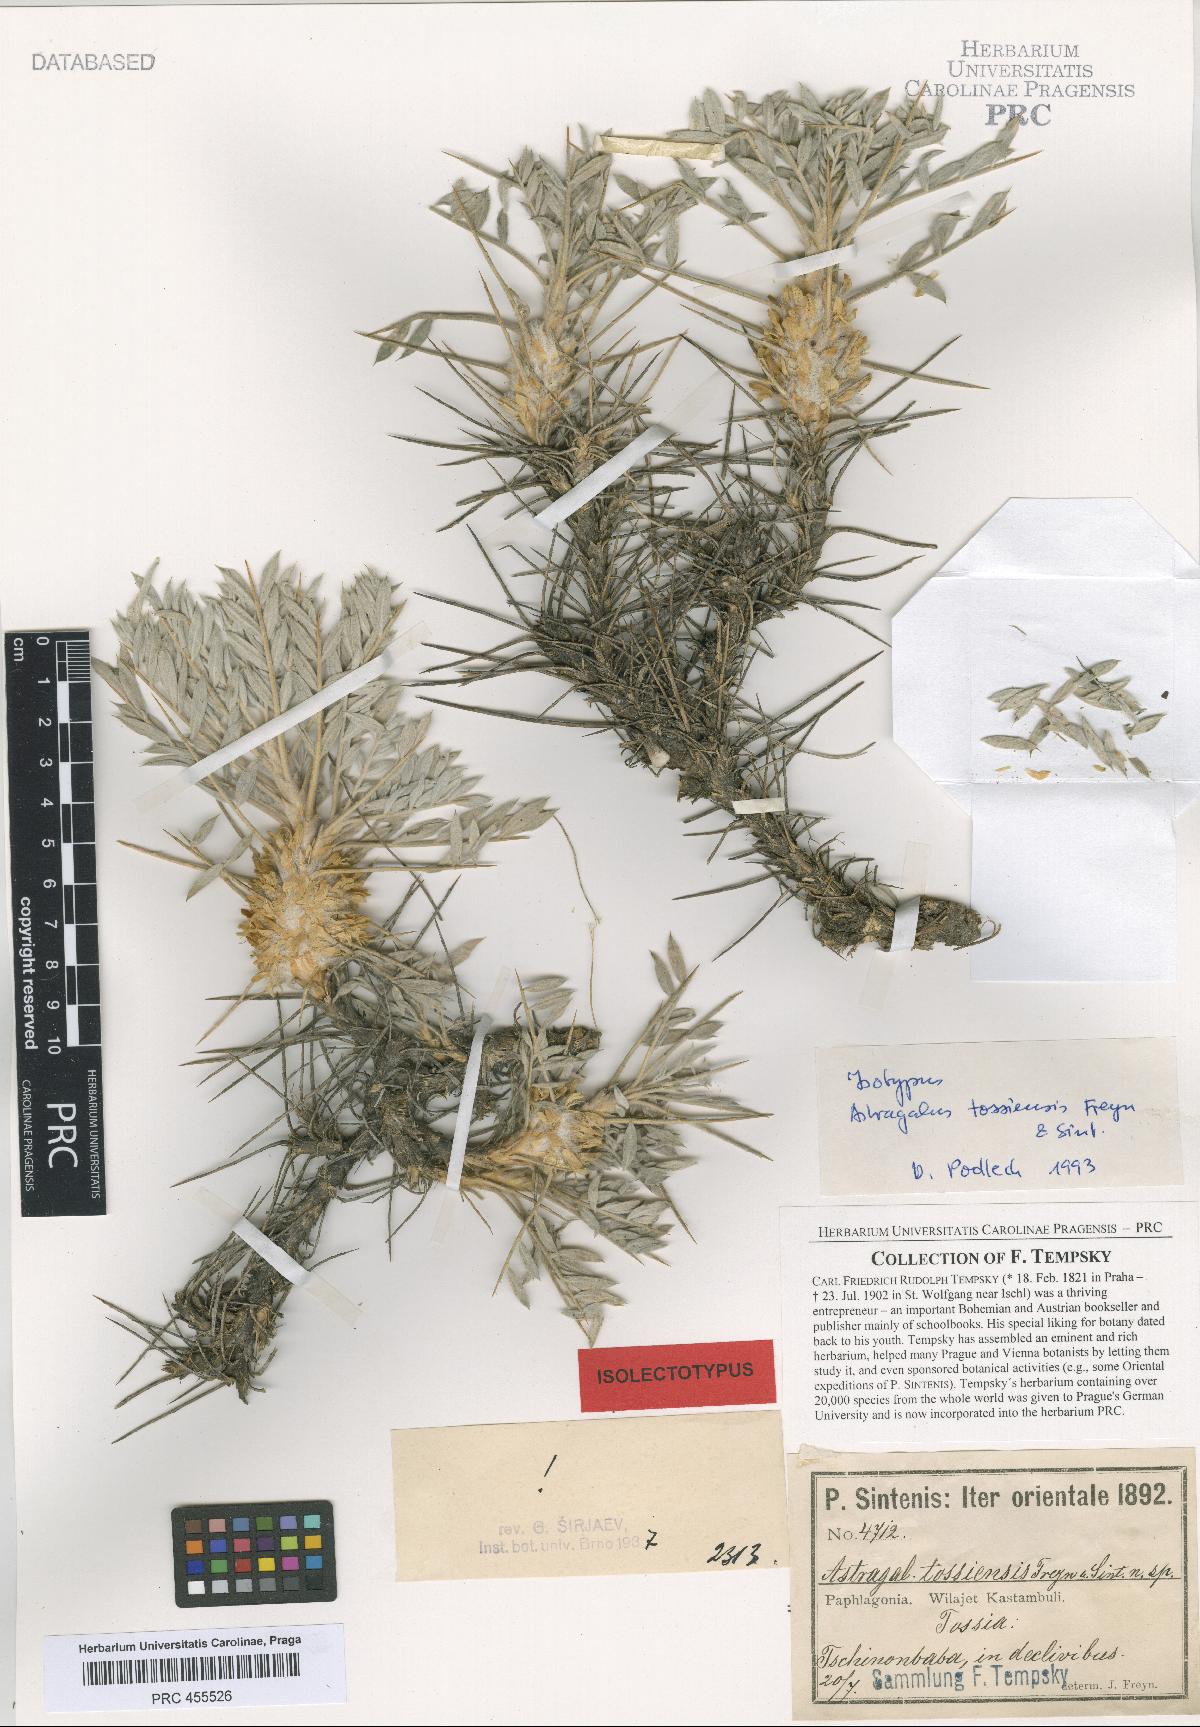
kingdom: Plantae
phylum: Tracheophyta
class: Magnoliopsida
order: Fabales
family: Fabaceae
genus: Astragalus
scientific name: Astragalus micropterus
